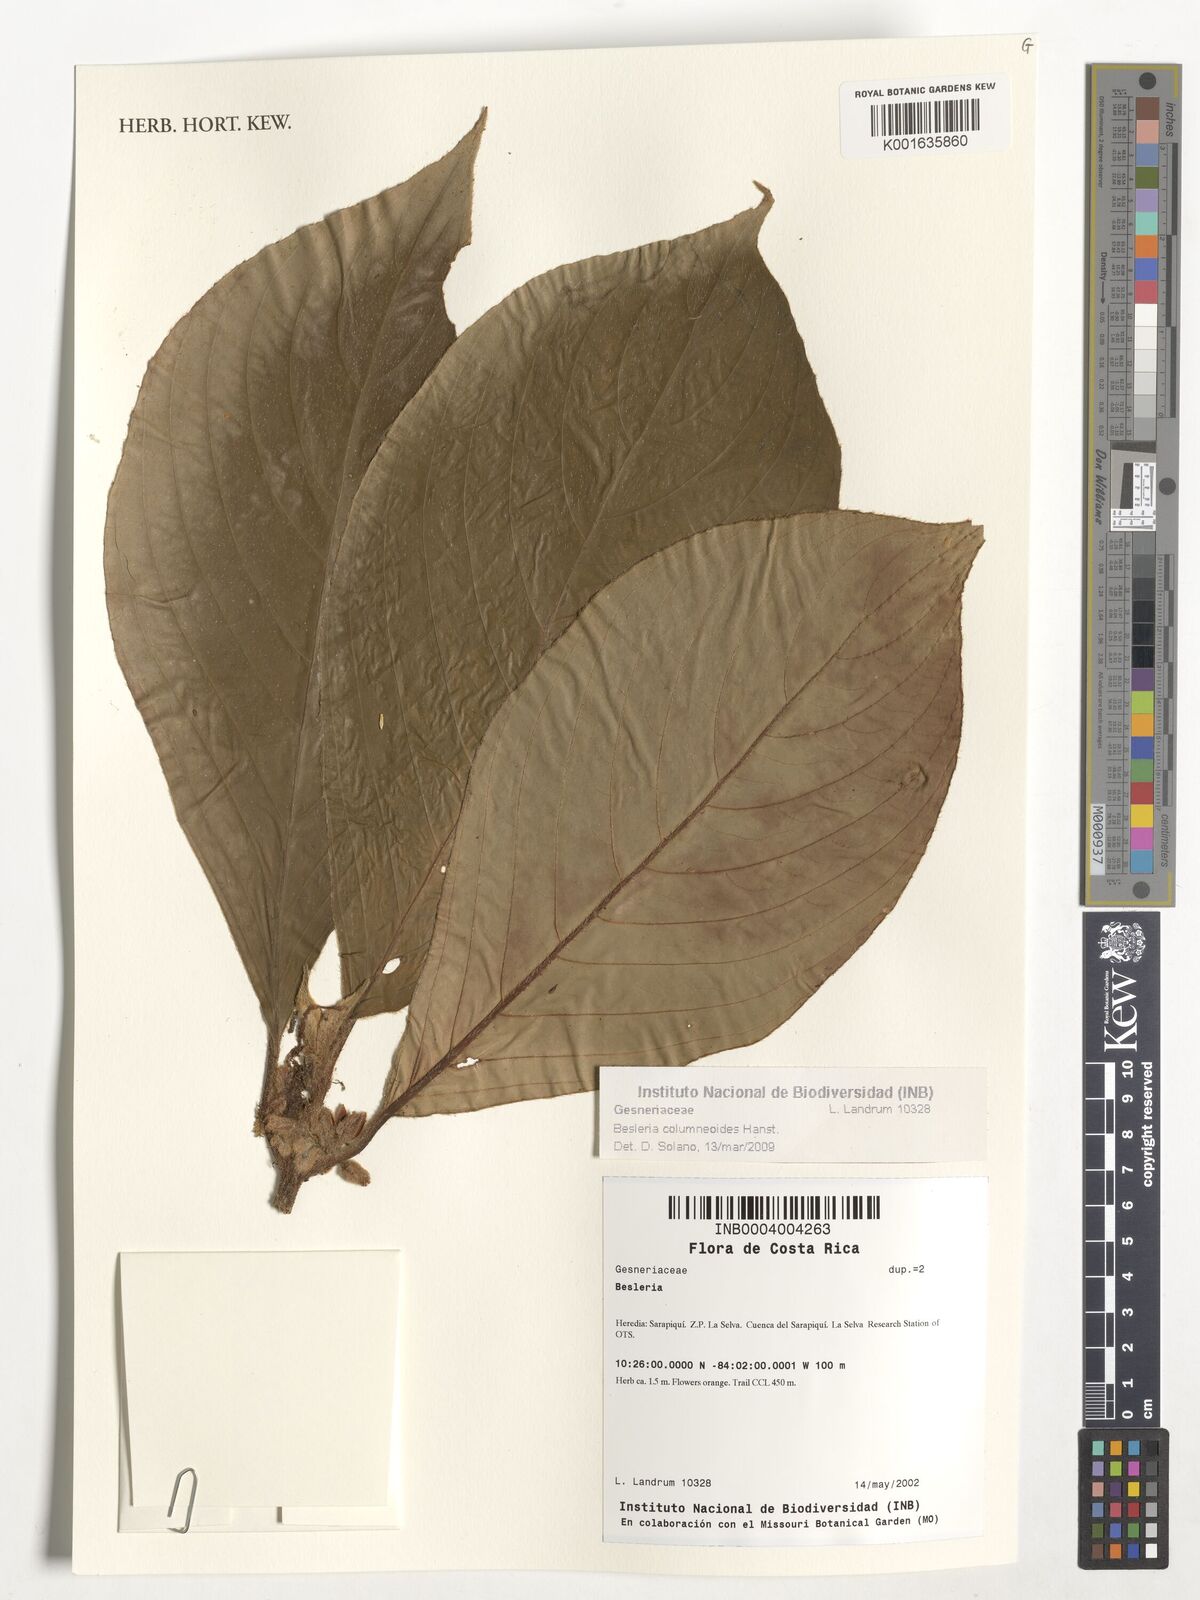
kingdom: Plantae
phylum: Tracheophyta
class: Magnoliopsida
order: Lamiales
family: Gesneriaceae
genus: Besleria
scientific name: Besleria columneoides
